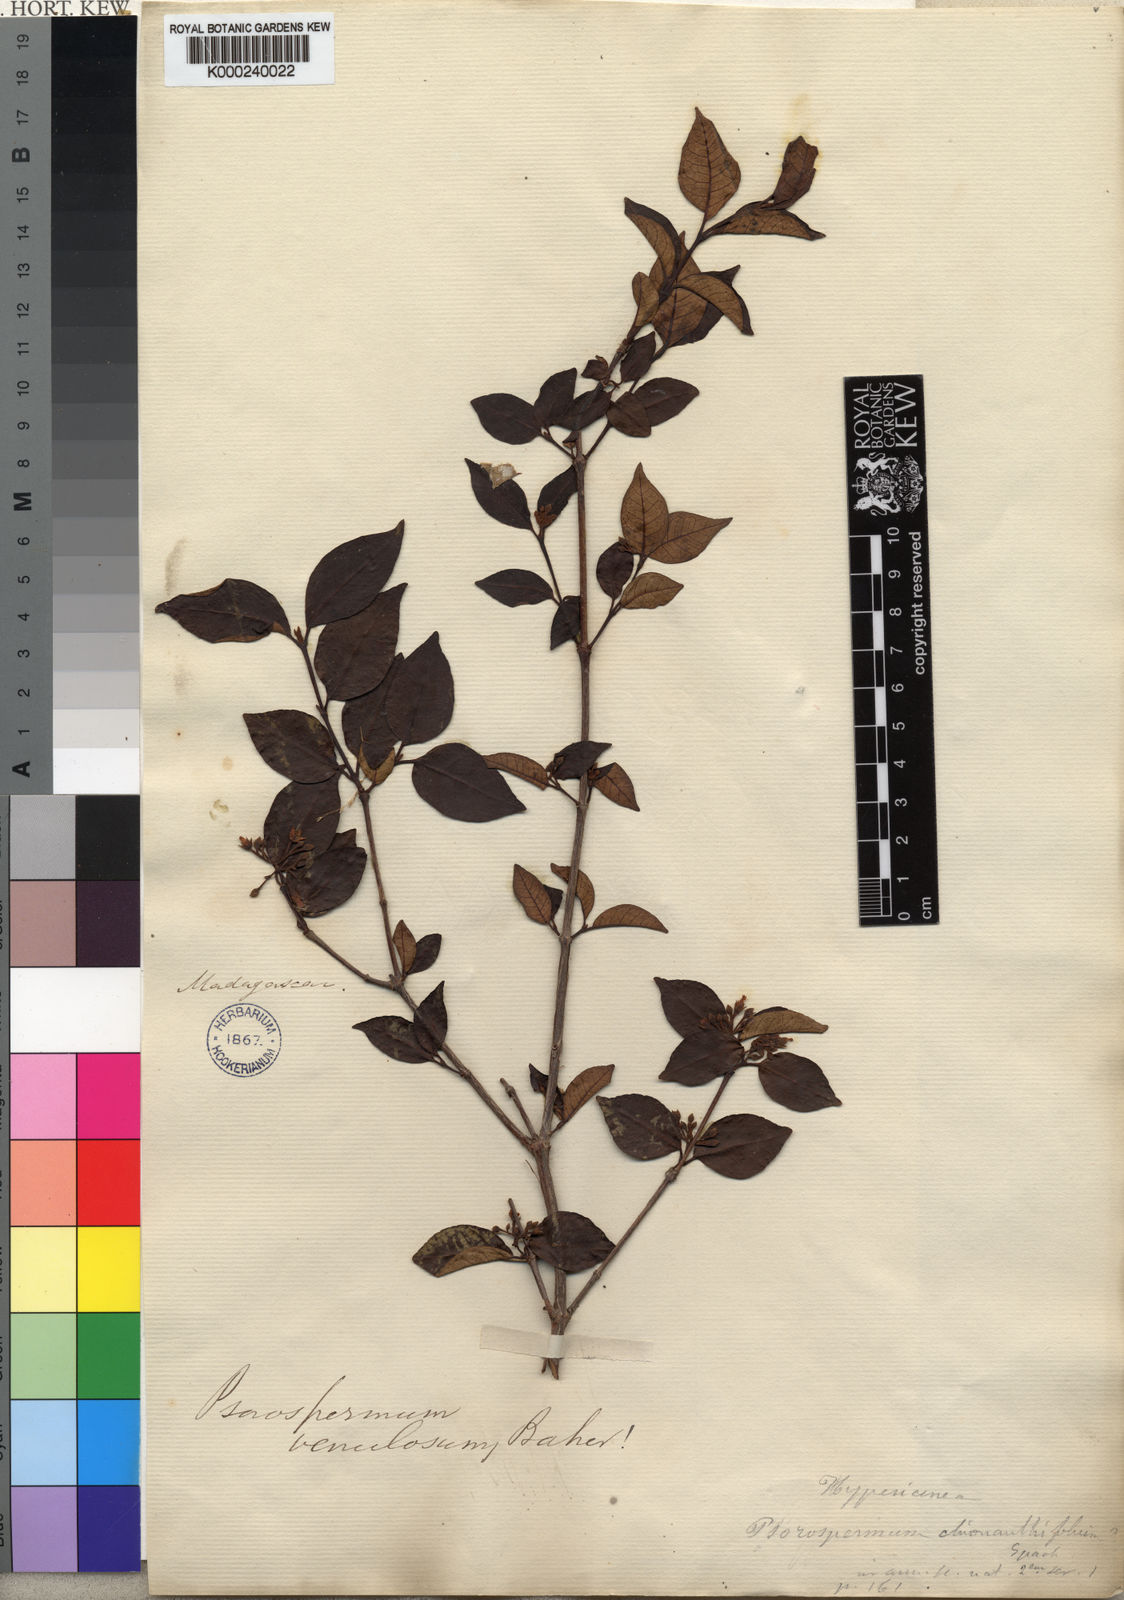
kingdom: Plantae
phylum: Tracheophyta
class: Magnoliopsida
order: Malpighiales
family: Hypericaceae
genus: Psorospermum
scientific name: Psorospermum molluscum
